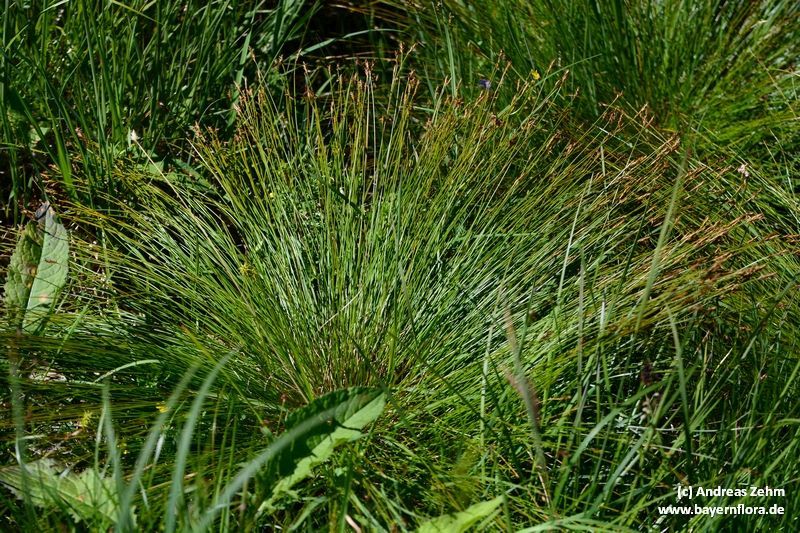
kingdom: Plantae
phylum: Tracheophyta
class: Liliopsida
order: Poales
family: Cyperaceae
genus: Carex
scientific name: Carex davalliana
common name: Davall's sedge
